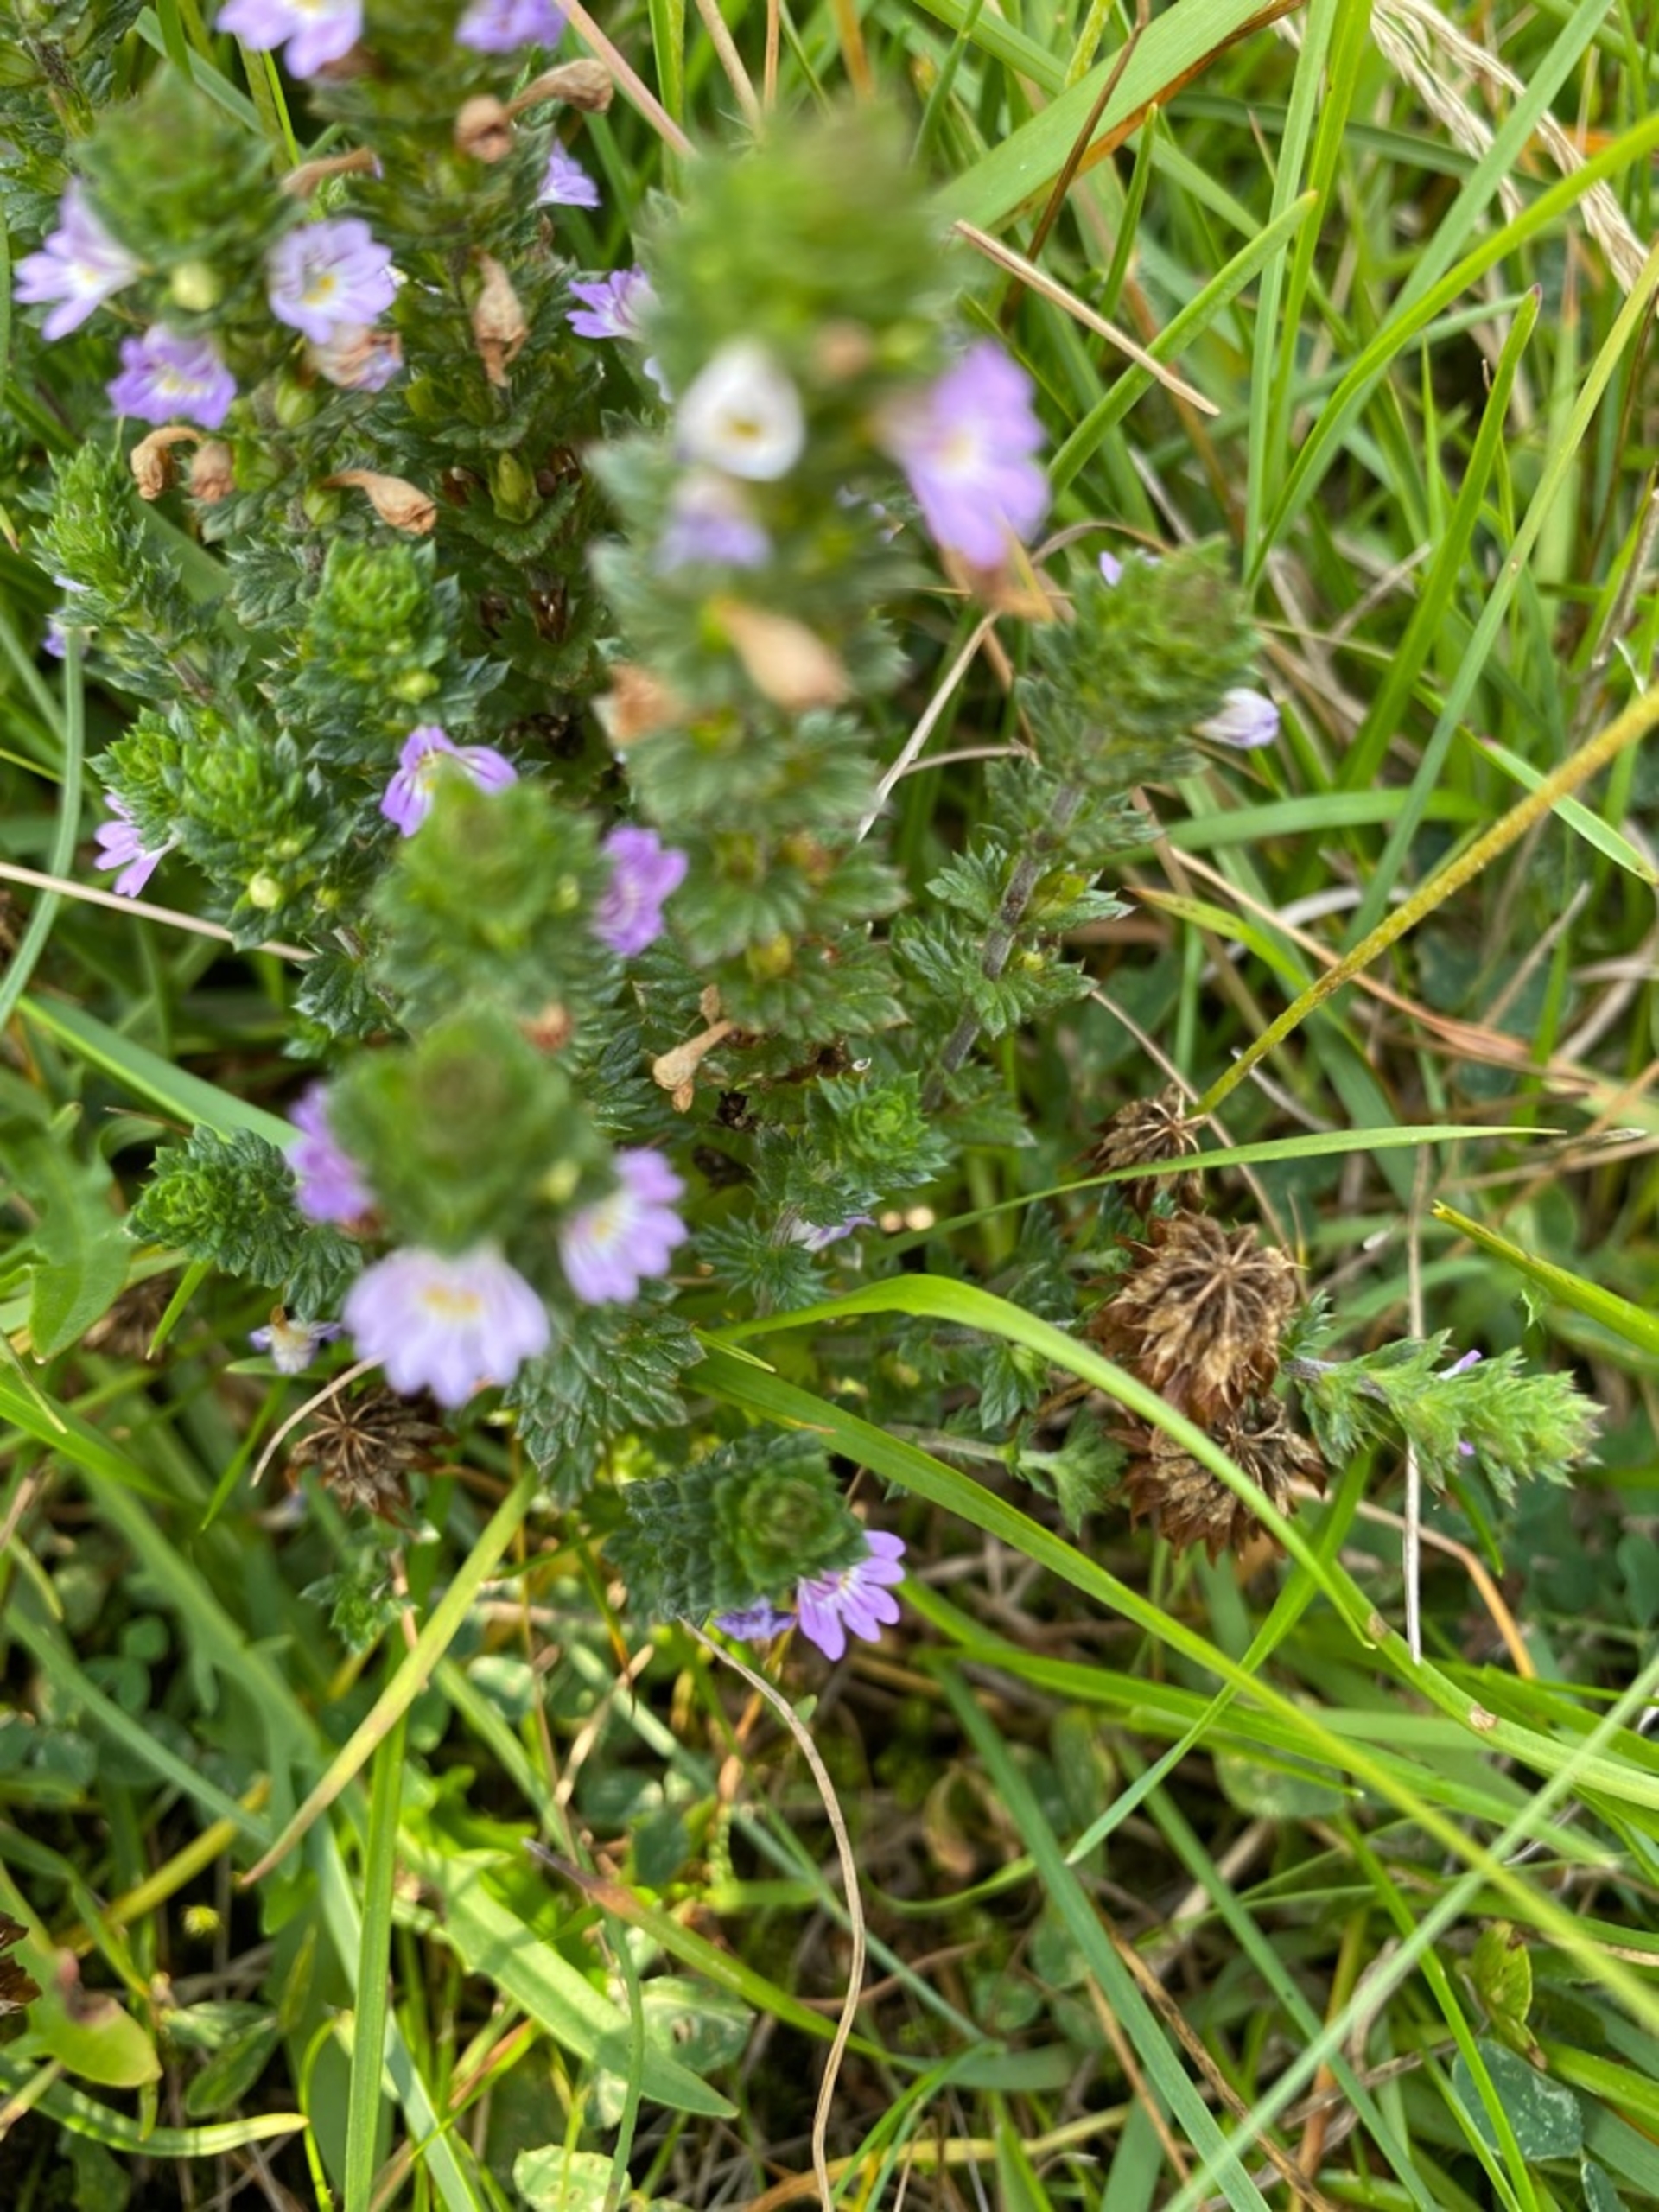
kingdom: Plantae
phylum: Tracheophyta
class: Magnoliopsida
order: Lamiales
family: Orobanchaceae
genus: Euphrasia
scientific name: Euphrasia vernalis
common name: Kirtel-øjentrøst
